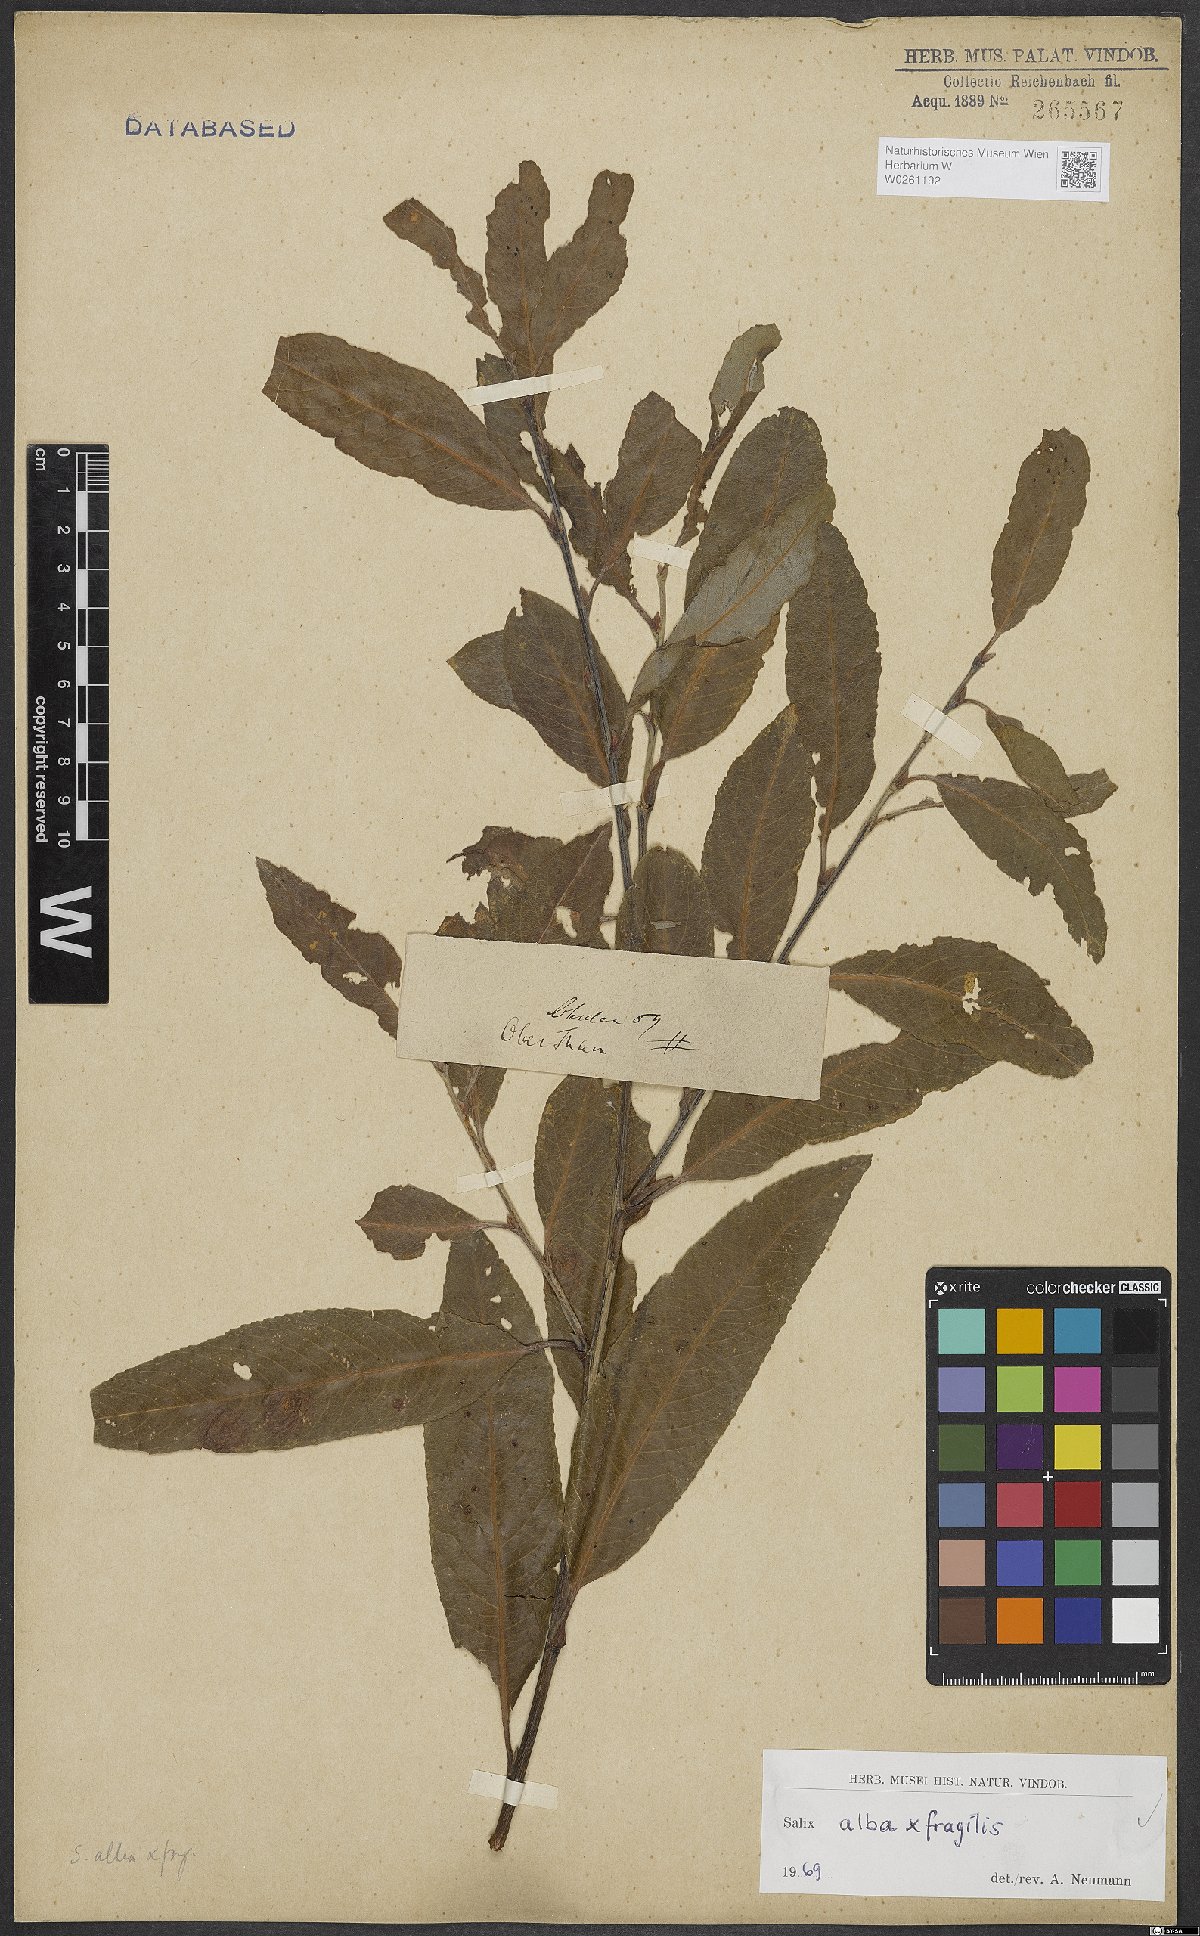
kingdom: Plantae
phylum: Tracheophyta
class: Magnoliopsida
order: Malpighiales
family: Salicaceae
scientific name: Salicaceae
